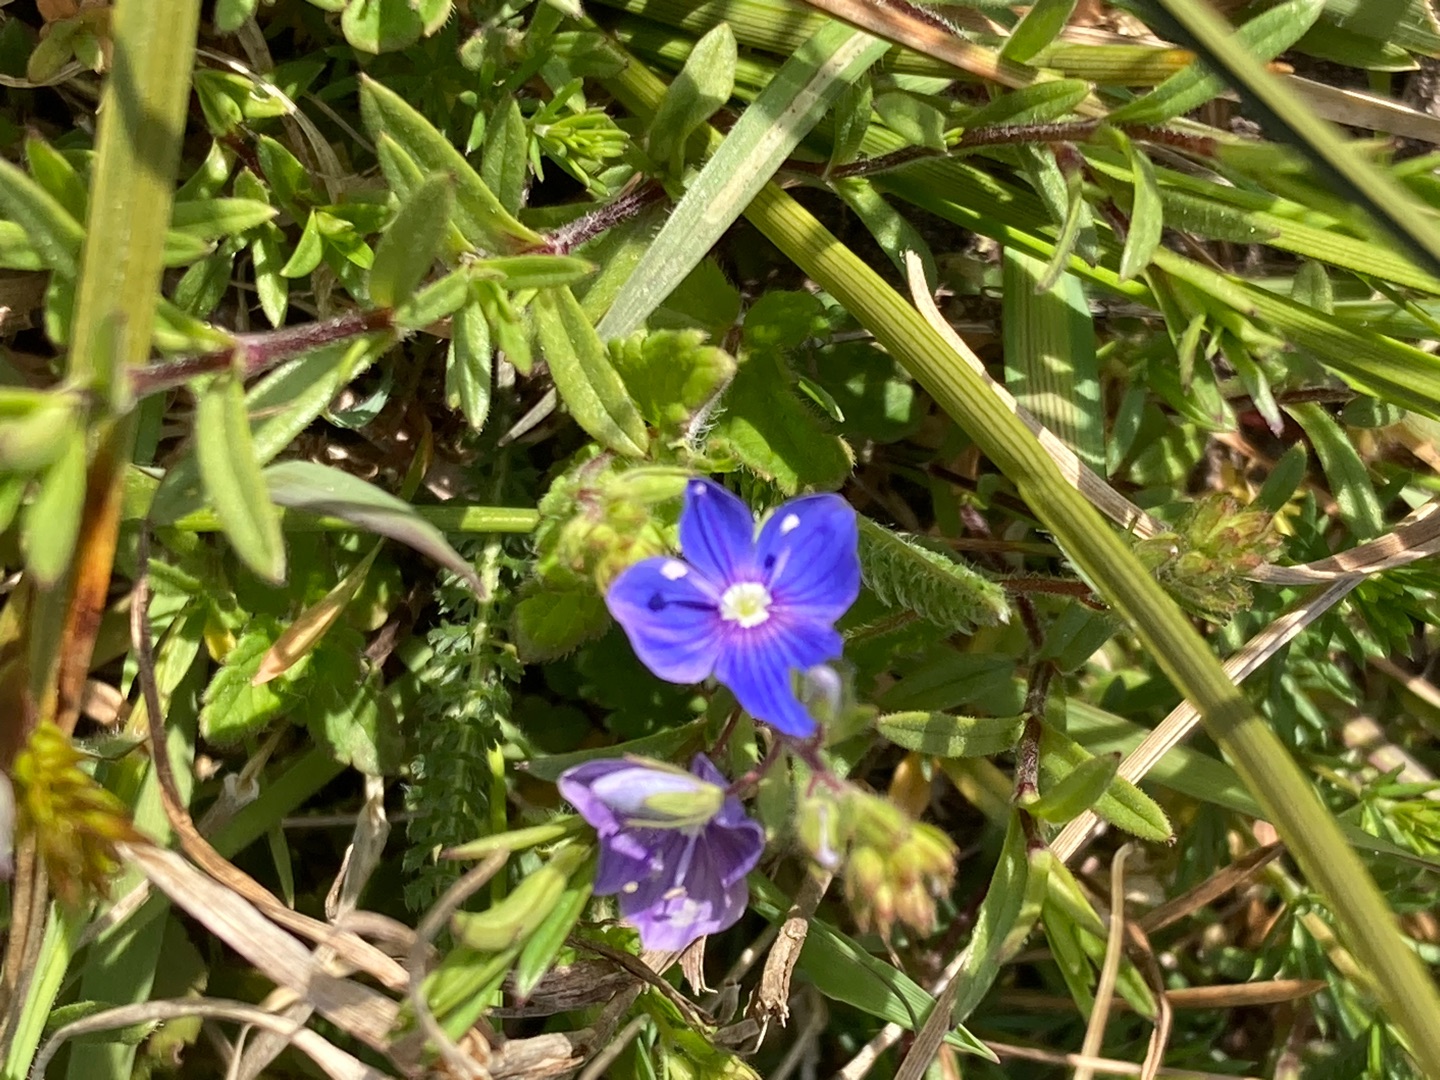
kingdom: Plantae
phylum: Tracheophyta
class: Magnoliopsida
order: Lamiales
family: Plantaginaceae
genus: Veronica
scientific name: Veronica chamaedrys
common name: Tveskægget ærenpris
